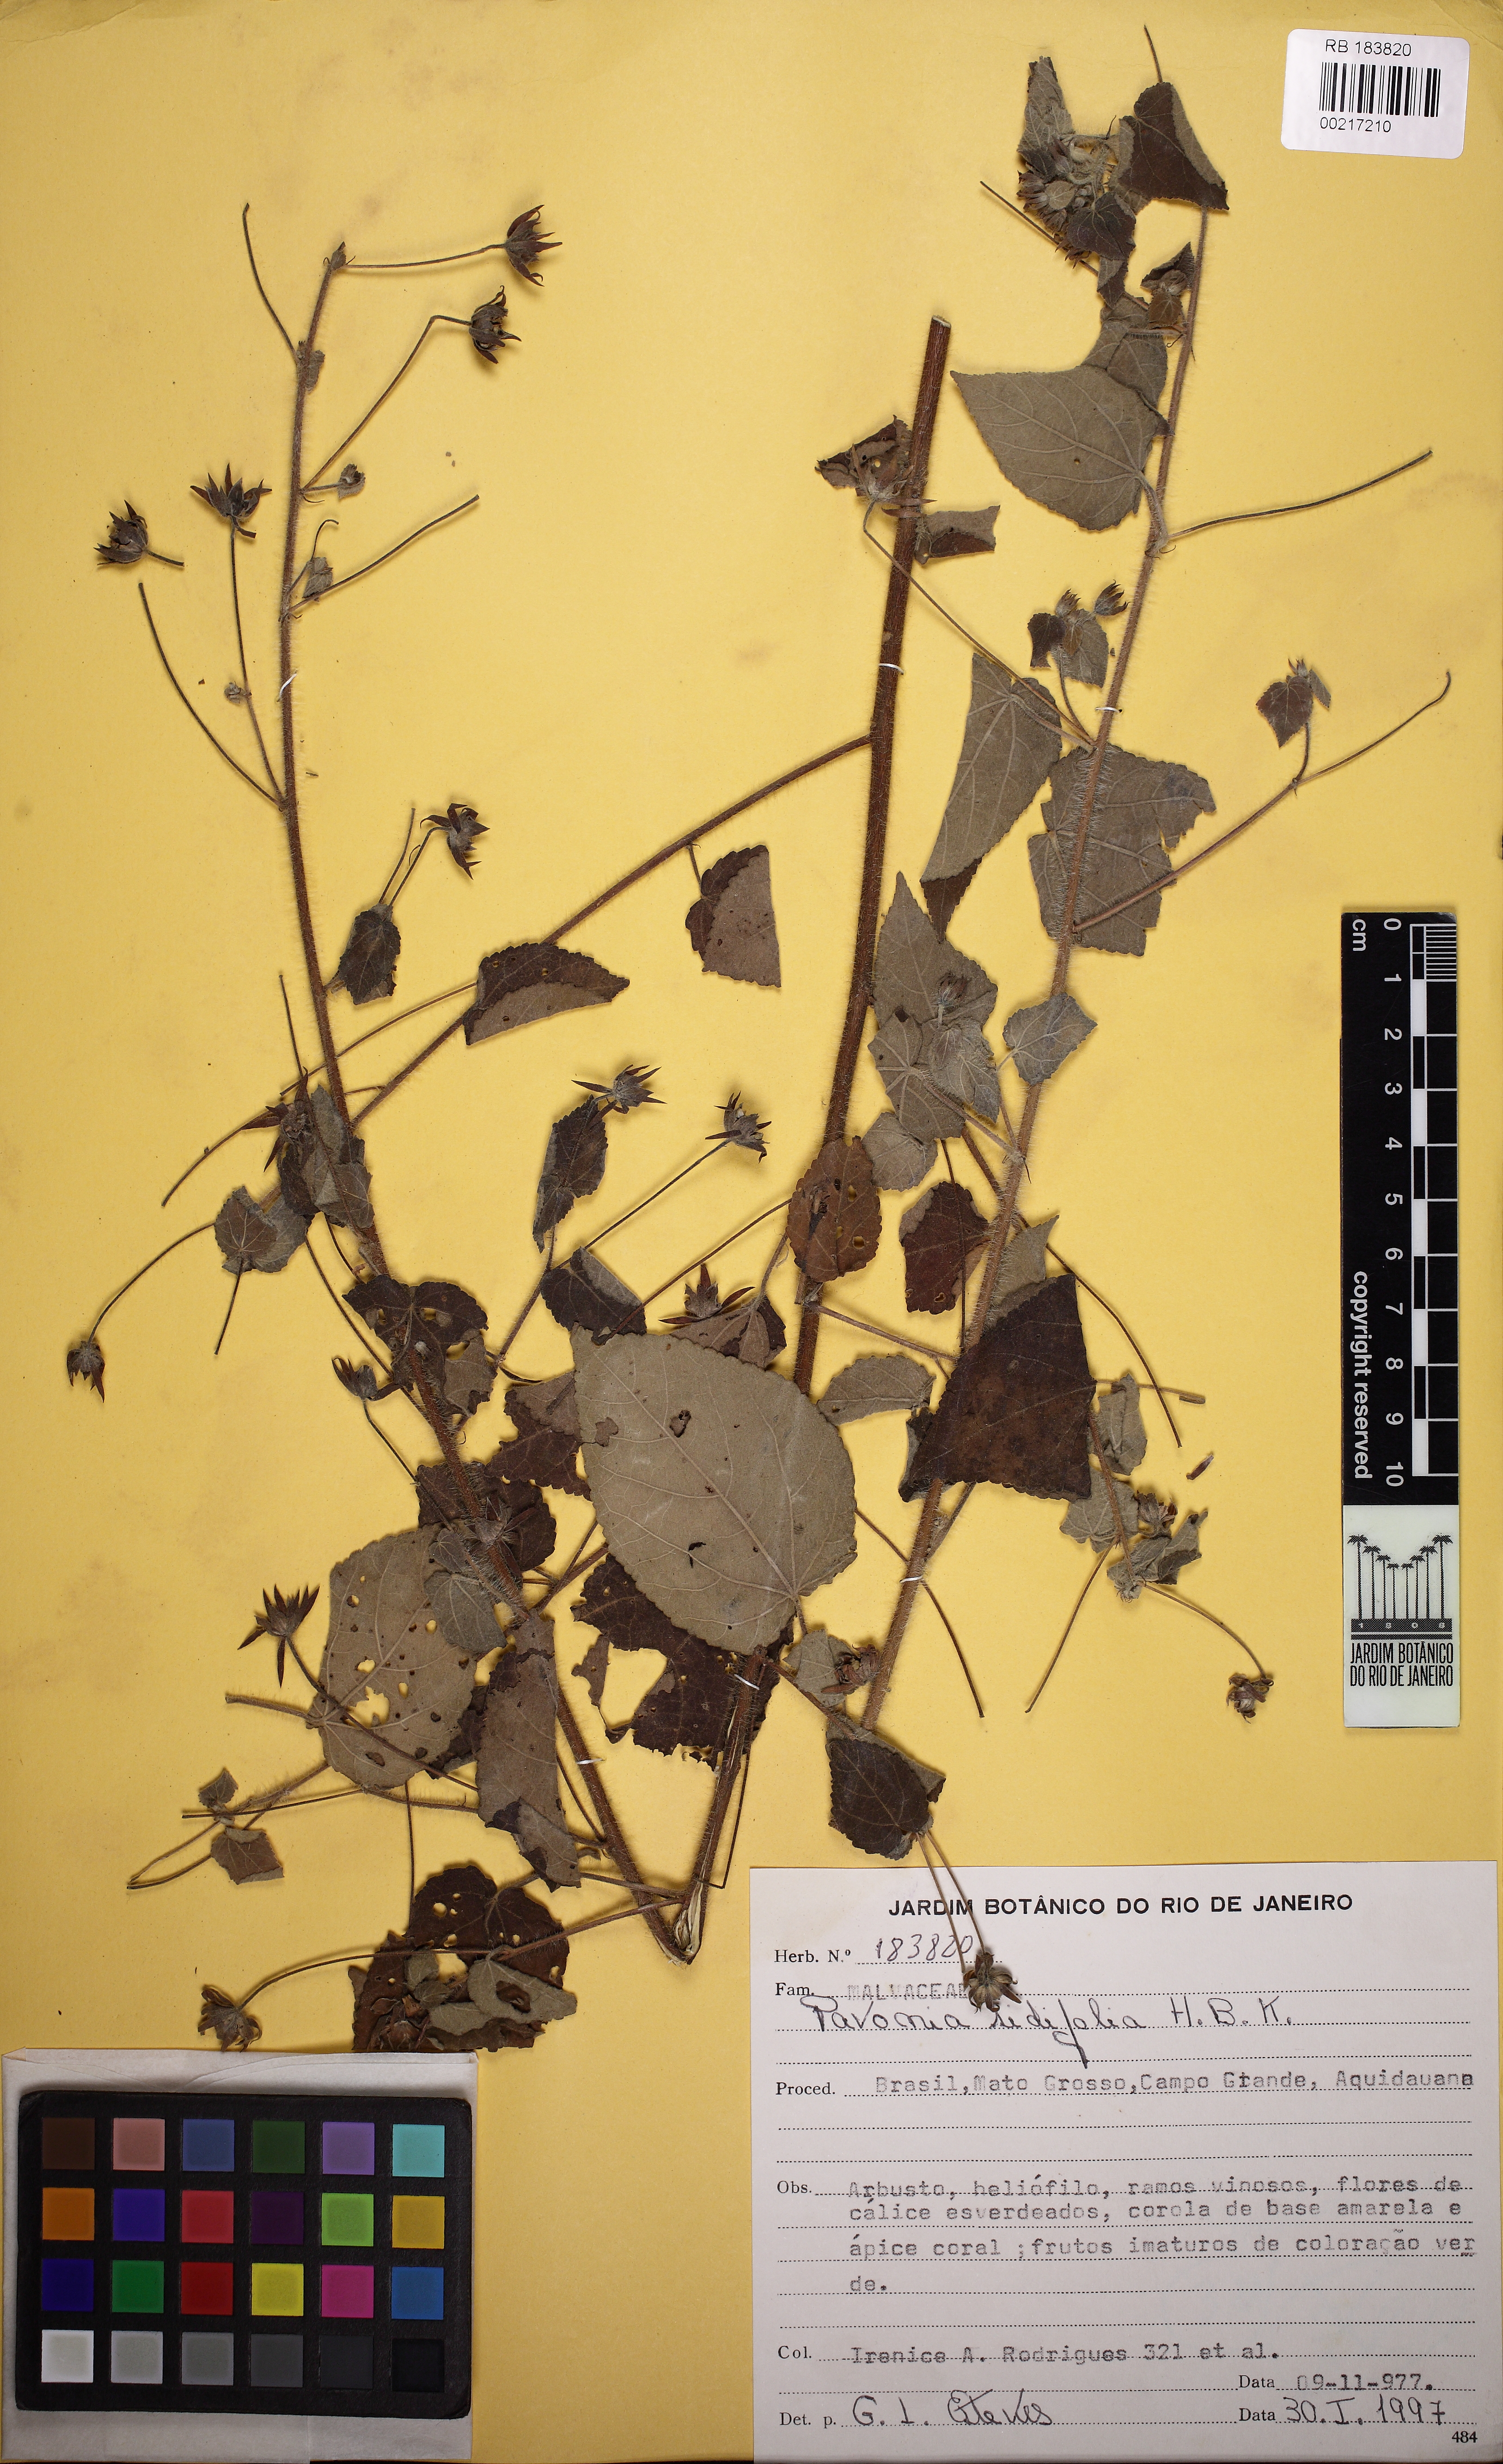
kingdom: Plantae
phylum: Tracheophyta
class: Magnoliopsida
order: Malvales
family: Malvaceae
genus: Pavonia
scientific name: Pavonia sidifolia
